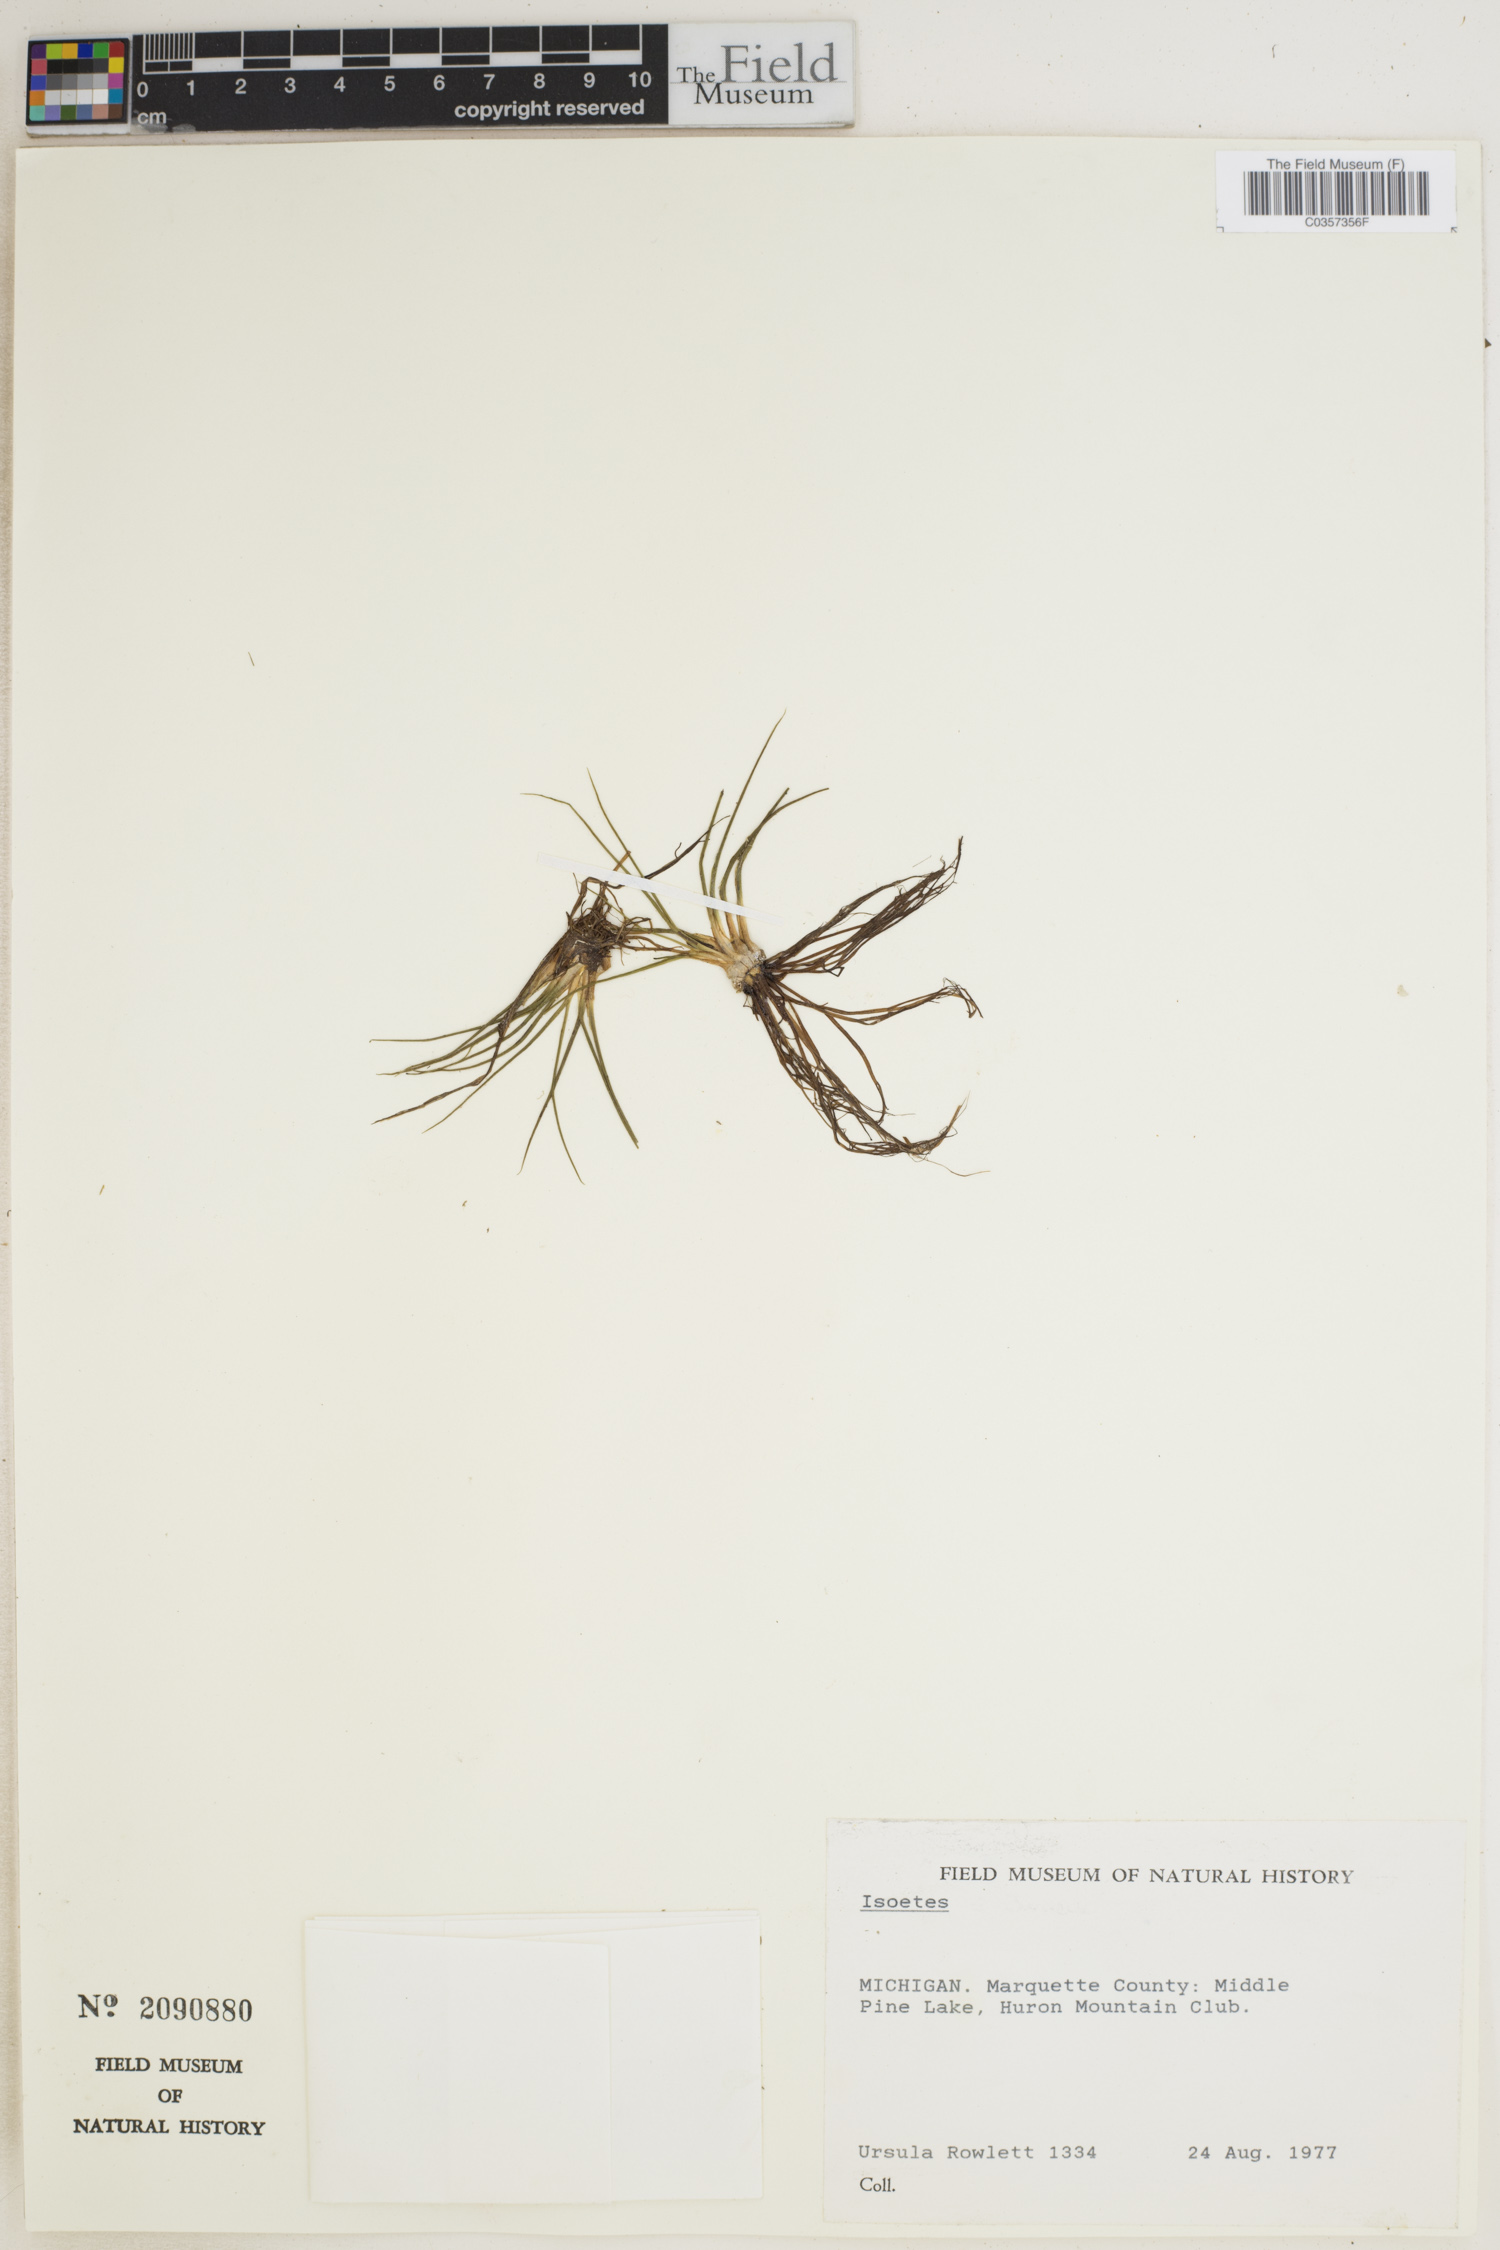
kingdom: Plantae
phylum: Tracheophyta
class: Lycopodiopsida
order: Isoetales
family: Isoetaceae
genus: Isoetes
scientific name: Isoetes
